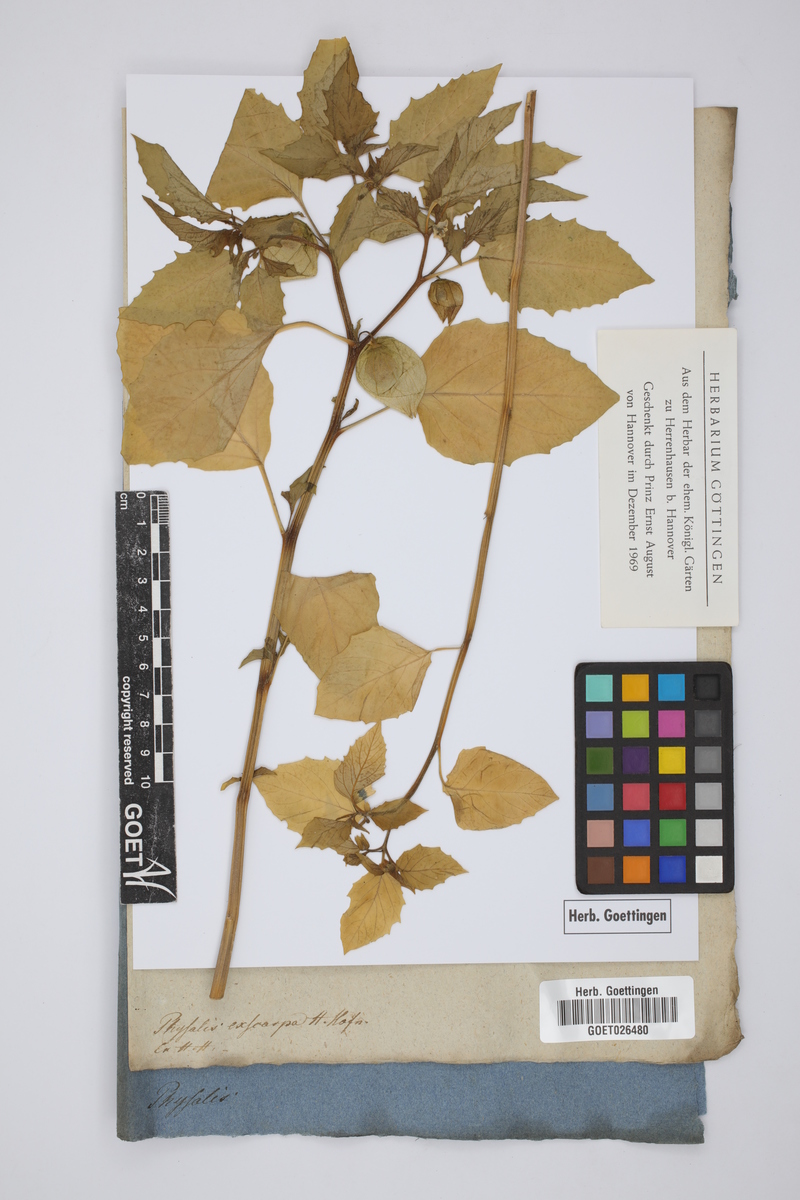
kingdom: Plantae
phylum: Tracheophyta
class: Magnoliopsida
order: Solanales
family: Solanaceae
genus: Physalis
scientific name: Physalis philadelphica
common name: Husk-tomato
